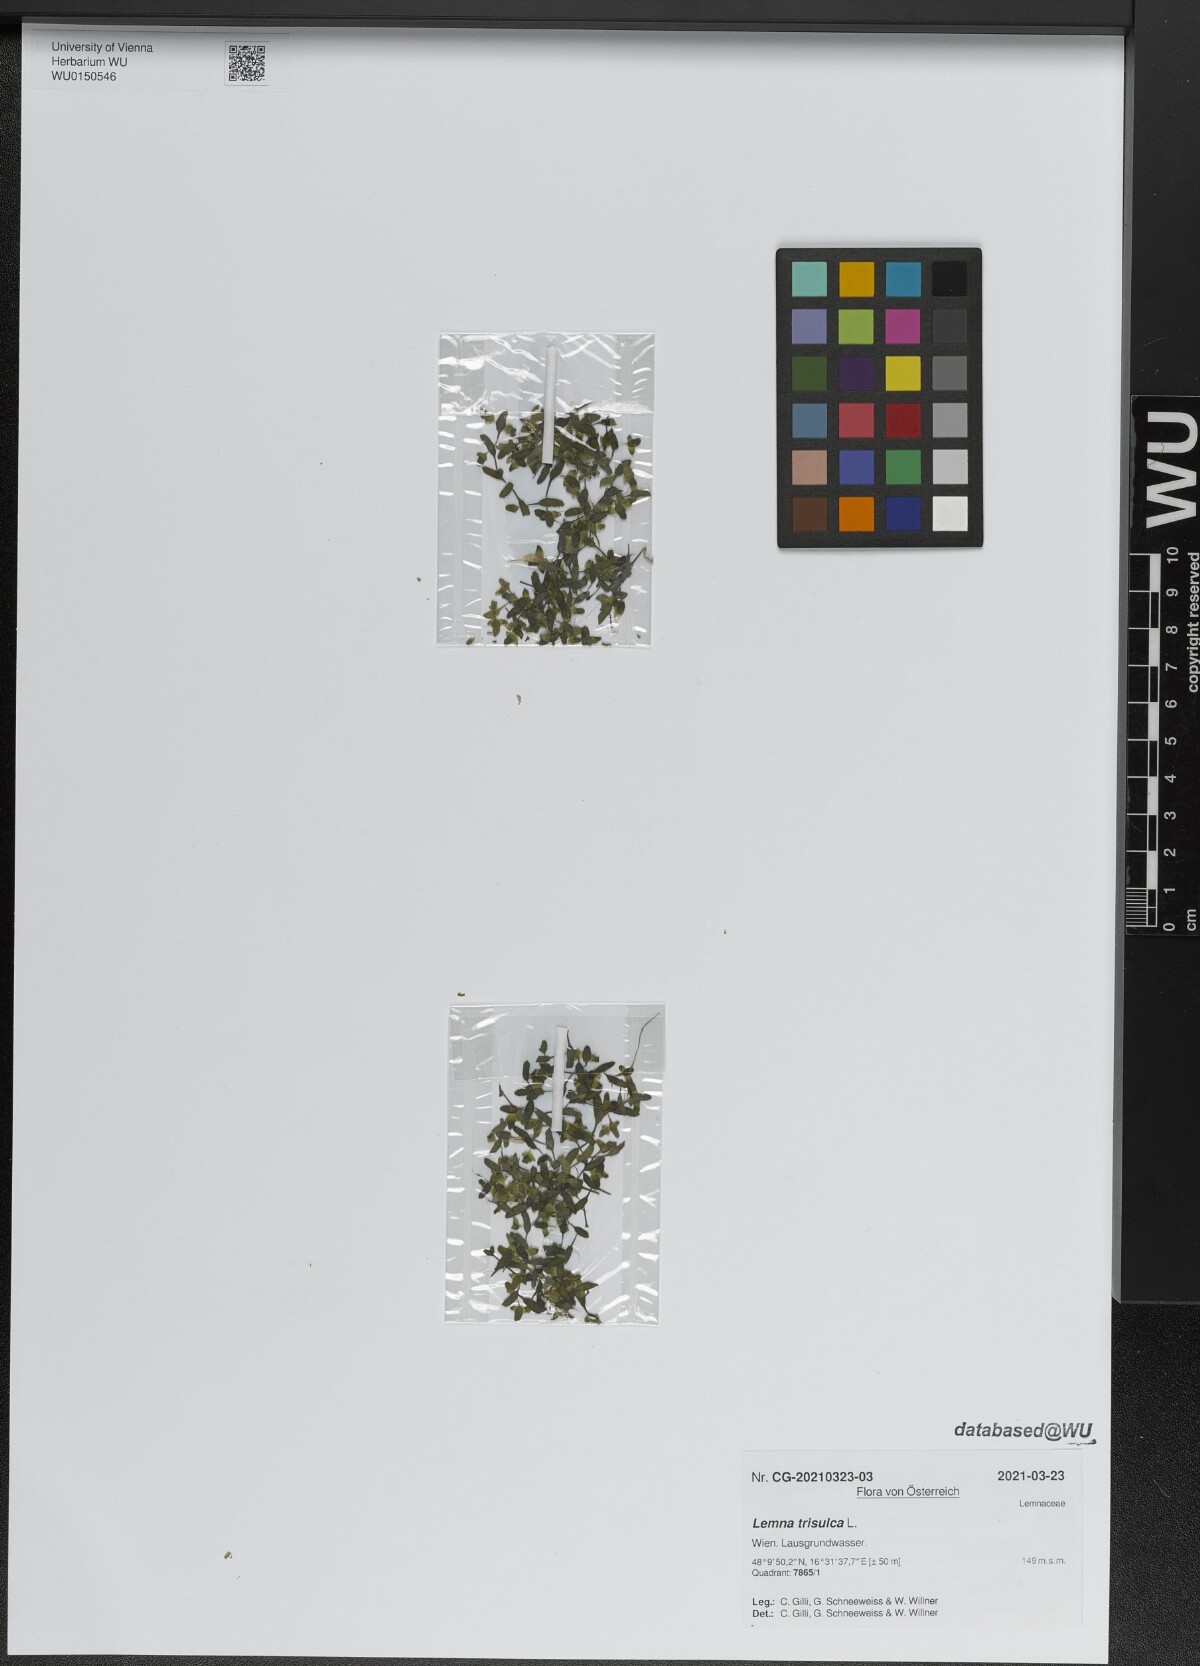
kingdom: Plantae
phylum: Tracheophyta
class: Liliopsida
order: Alismatales
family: Araceae
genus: Lemna
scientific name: Lemna trisulca
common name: Ivy-leaved duckweed
